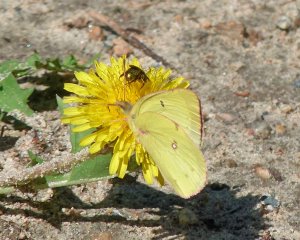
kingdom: Animalia
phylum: Arthropoda
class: Insecta
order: Lepidoptera
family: Pieridae
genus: Colias
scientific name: Colias philodice
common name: Clouded Sulphur
